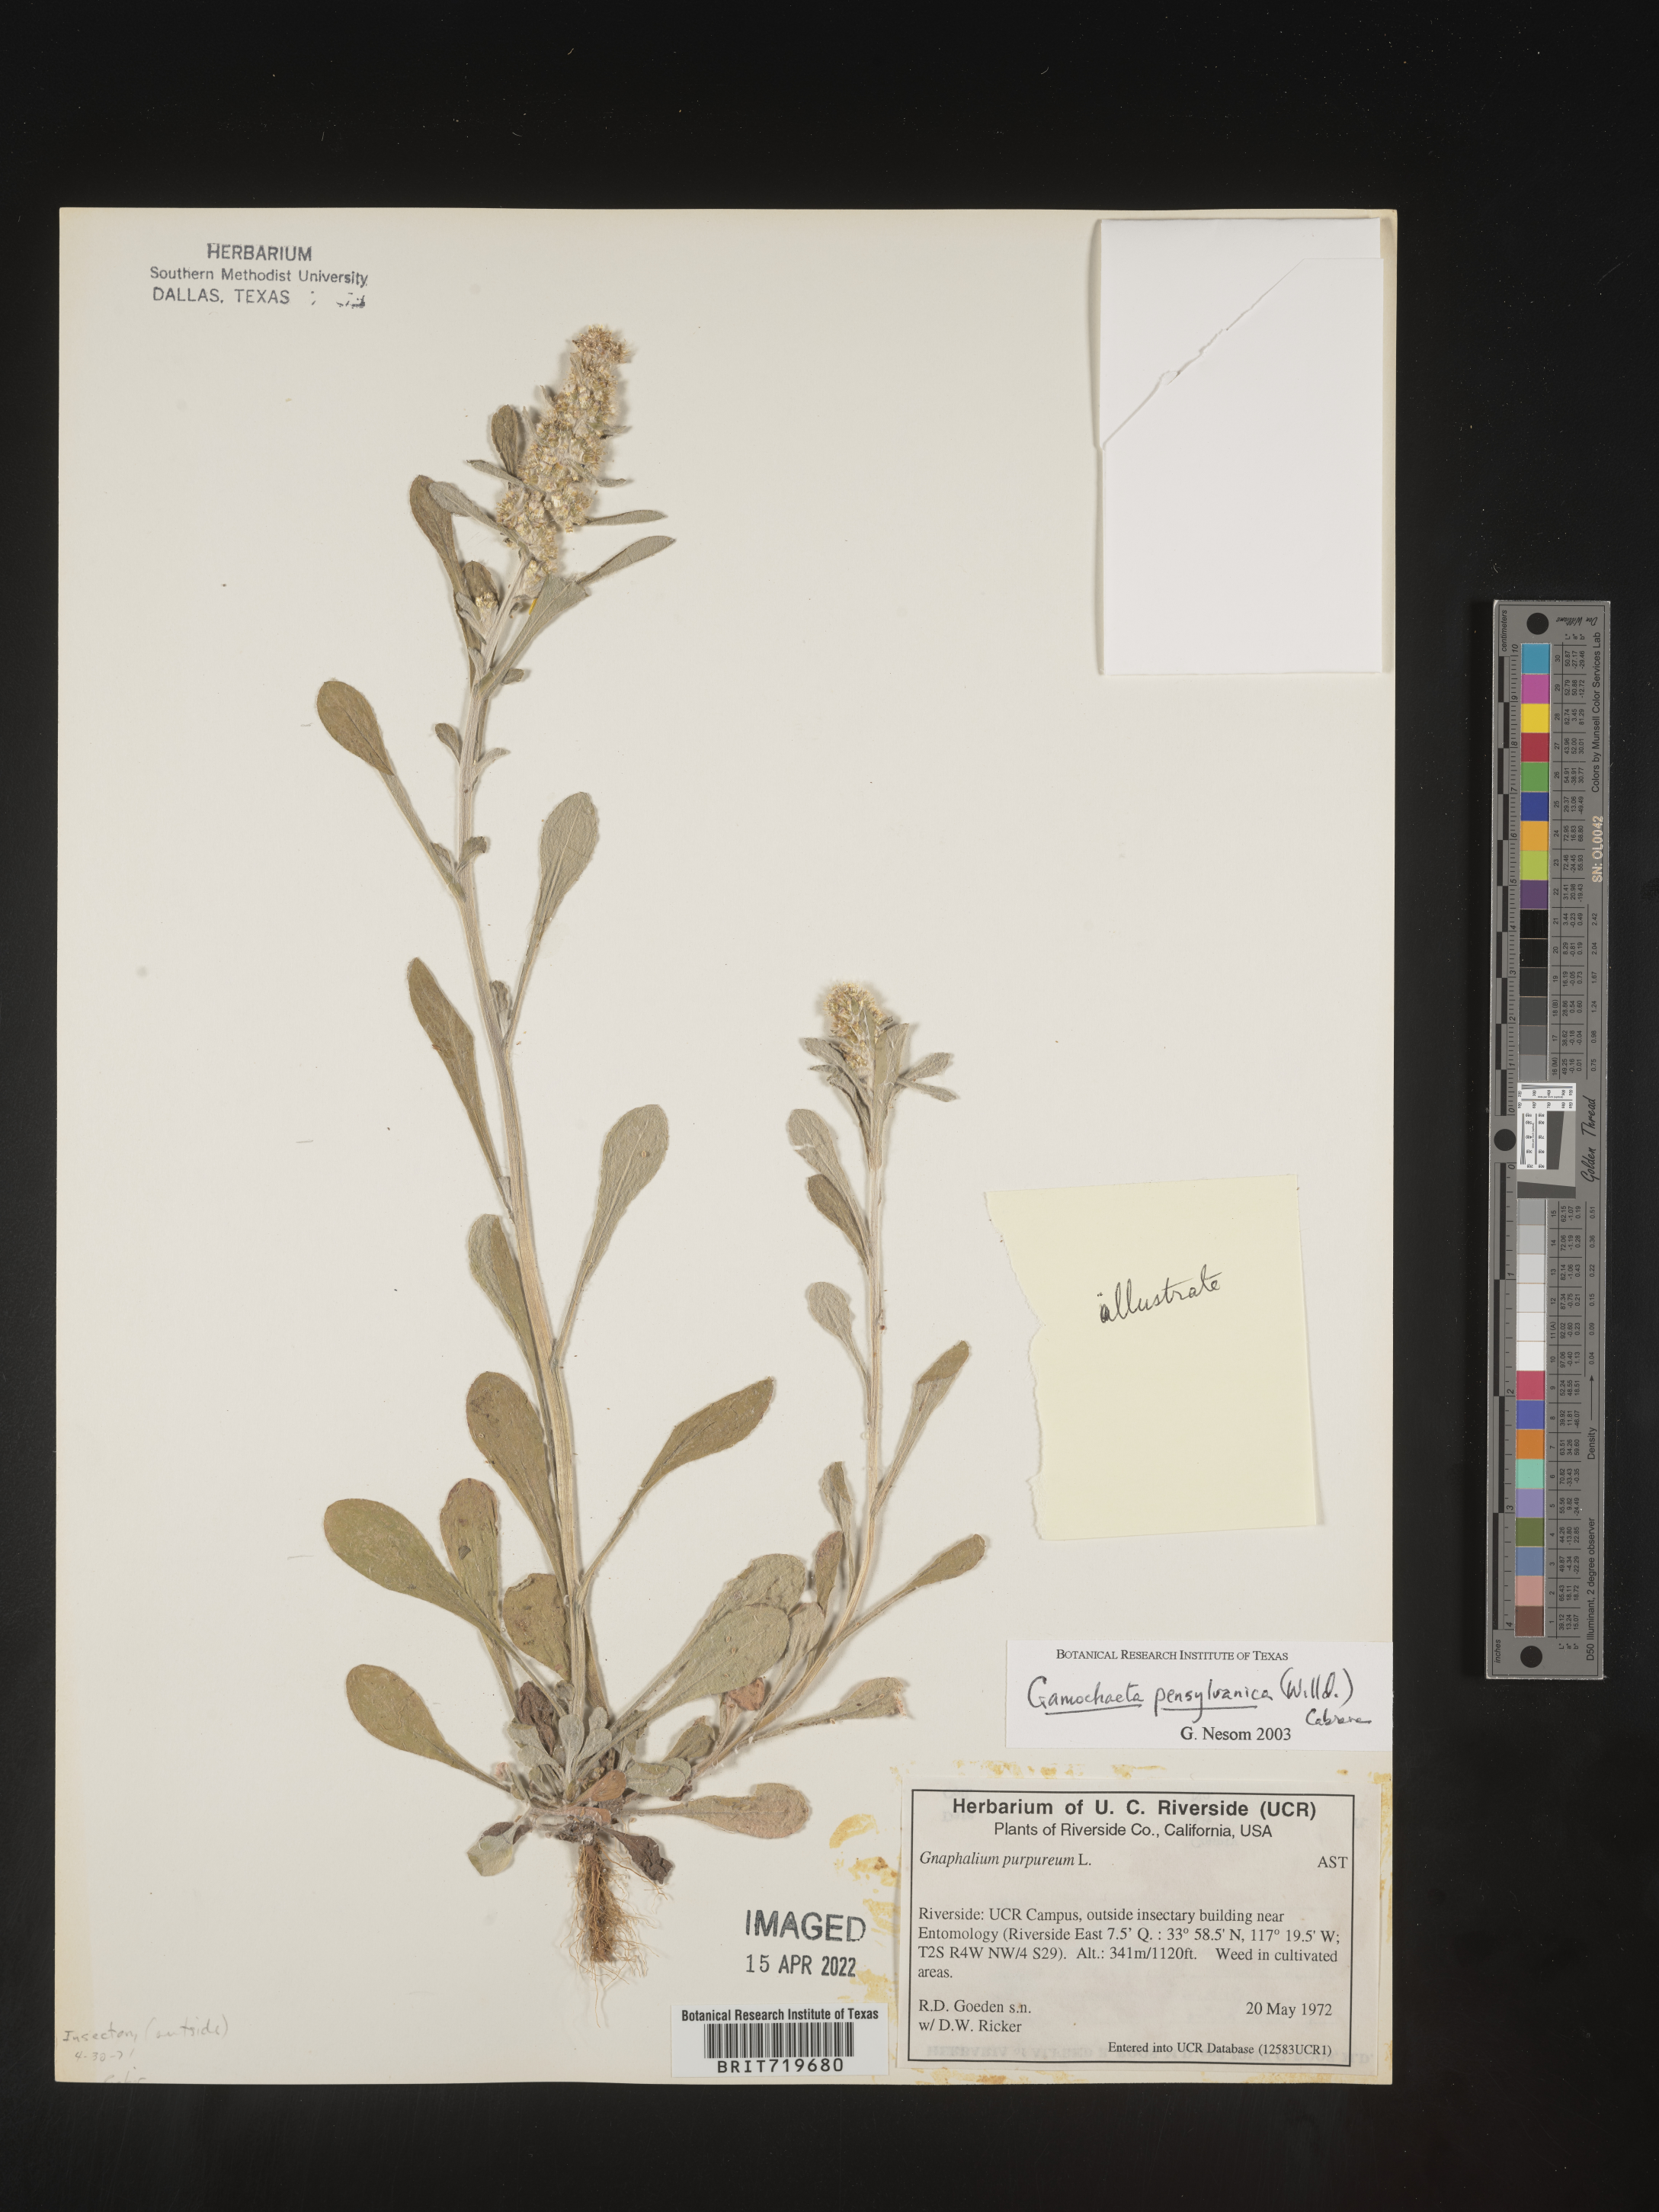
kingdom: Plantae
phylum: Tracheophyta
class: Magnoliopsida
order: Asterales
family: Asteraceae
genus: Gamochaeta
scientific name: Gamochaeta pensylvanica
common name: Pennsylvania everlasting
